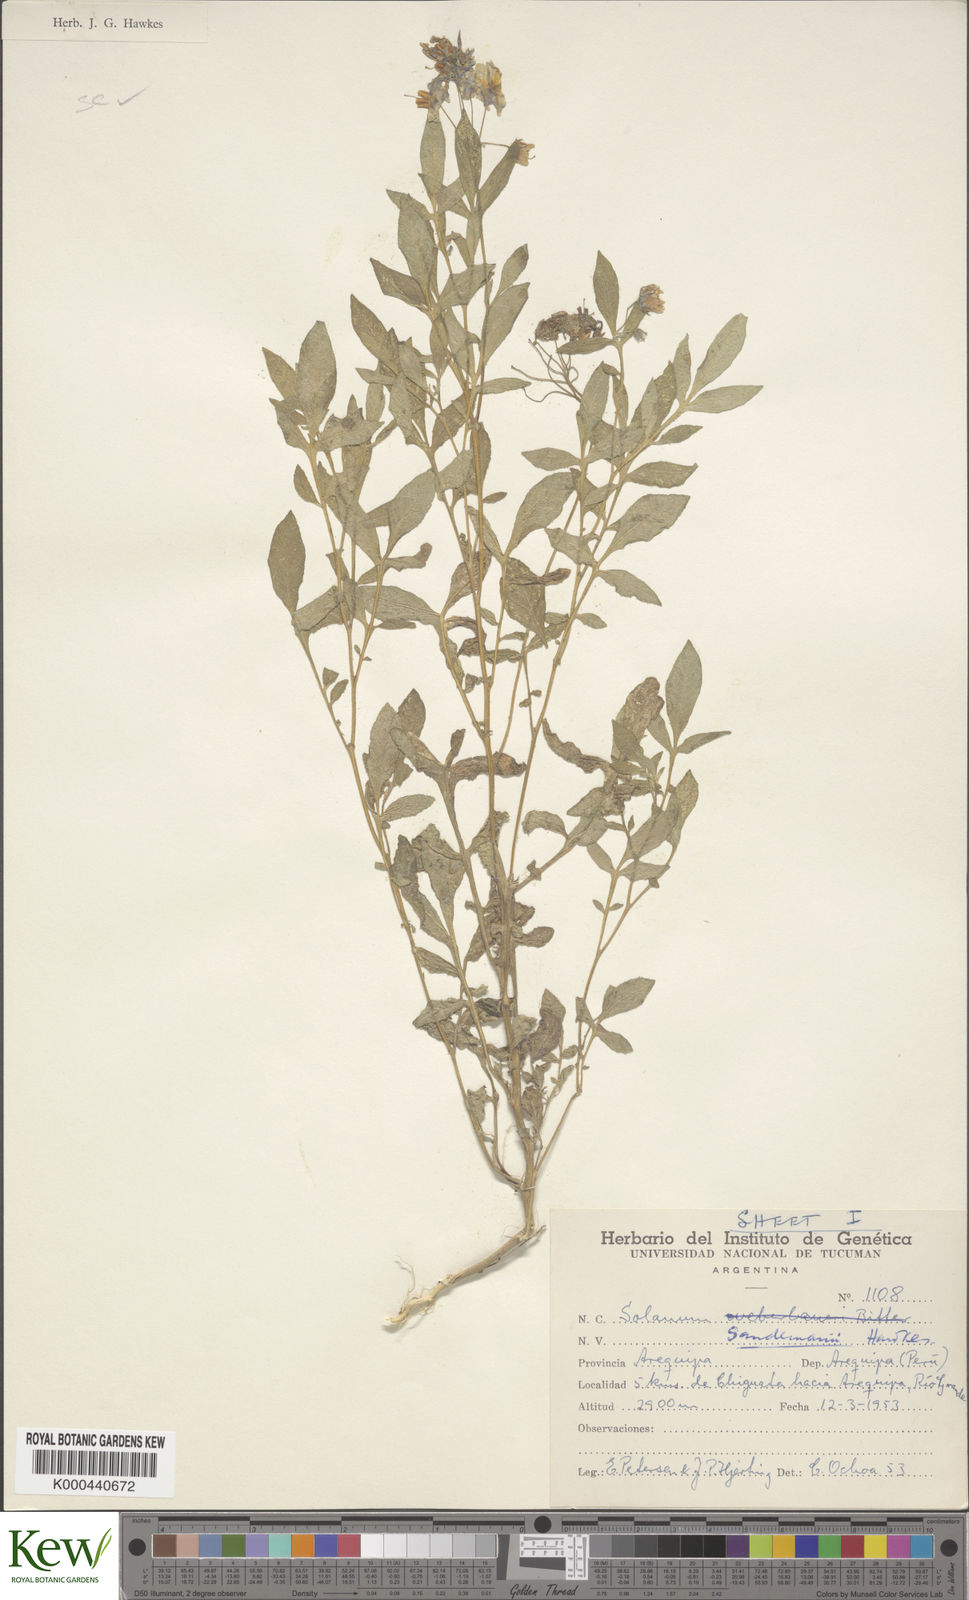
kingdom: Plantae
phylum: Tracheophyta
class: Magnoliopsida
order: Solanales
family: Solanaceae
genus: Solanum
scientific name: Solanum medians
